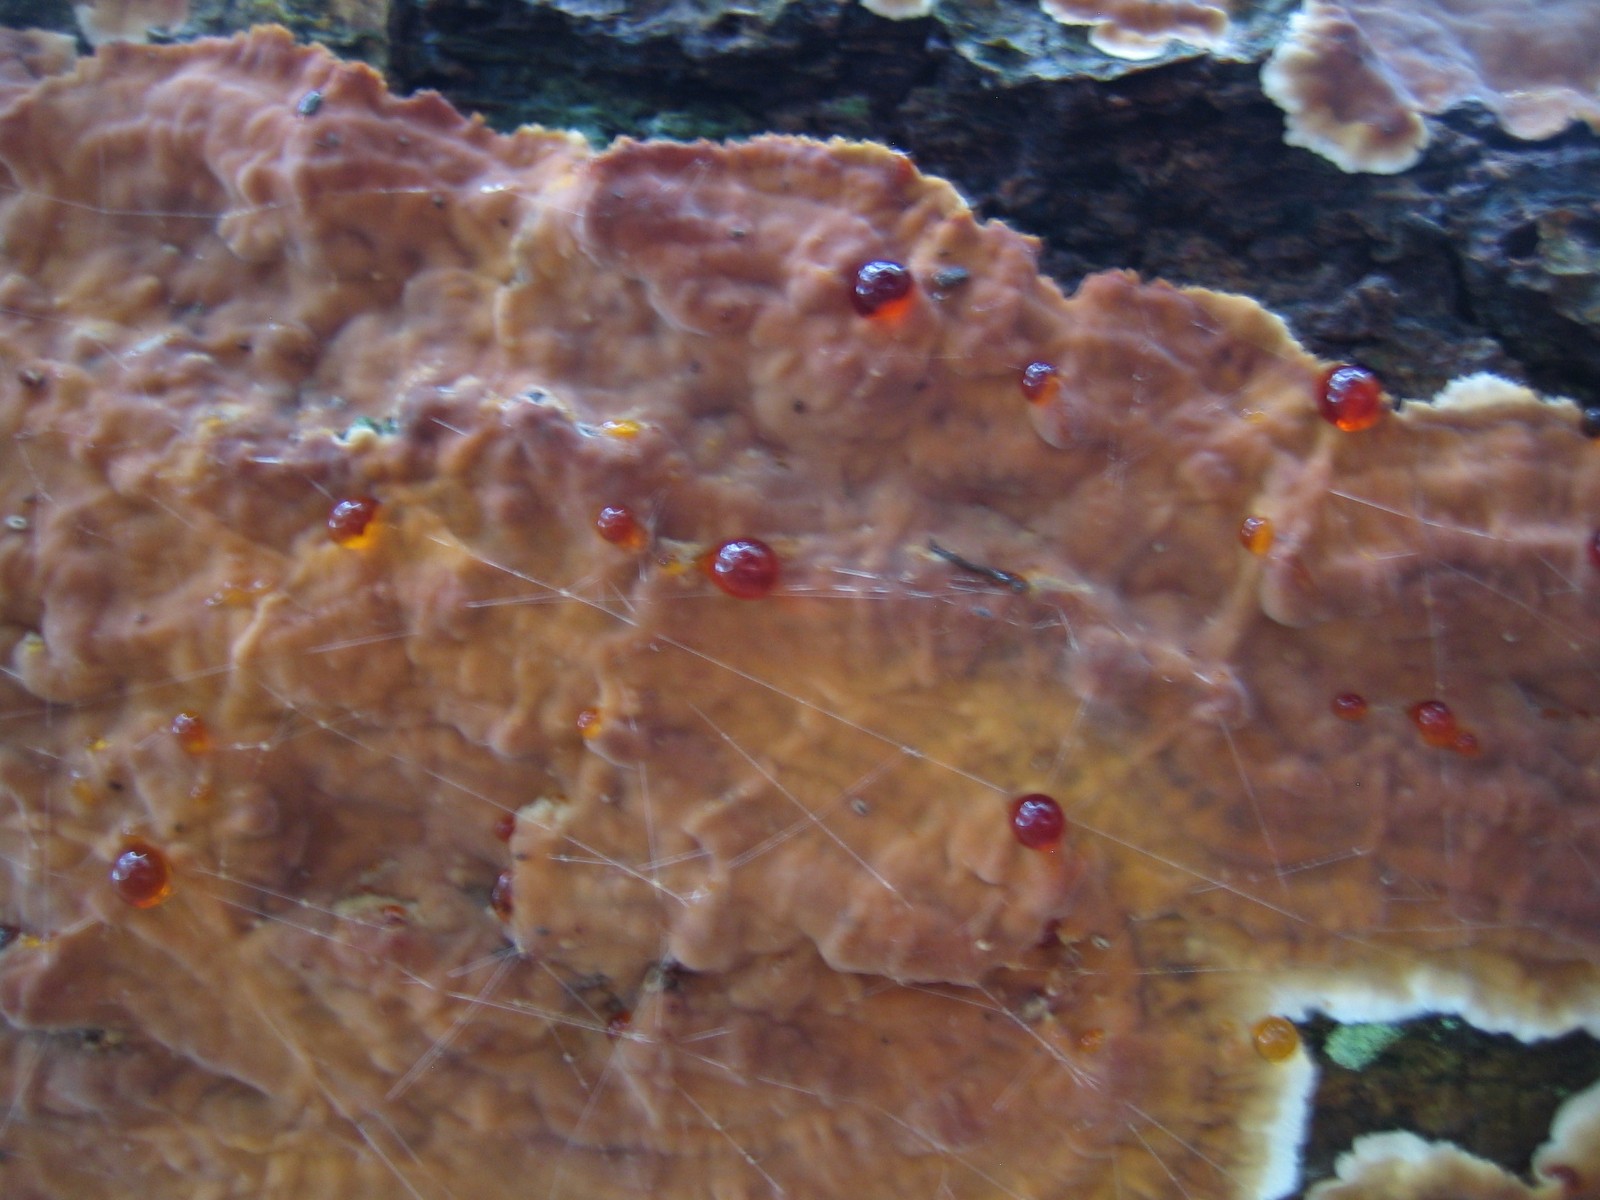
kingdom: Fungi
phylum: Basidiomycota
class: Agaricomycetes
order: Russulales
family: Stereaceae
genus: Stereum
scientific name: Stereum gausapatum
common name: tynd lædersvamp
